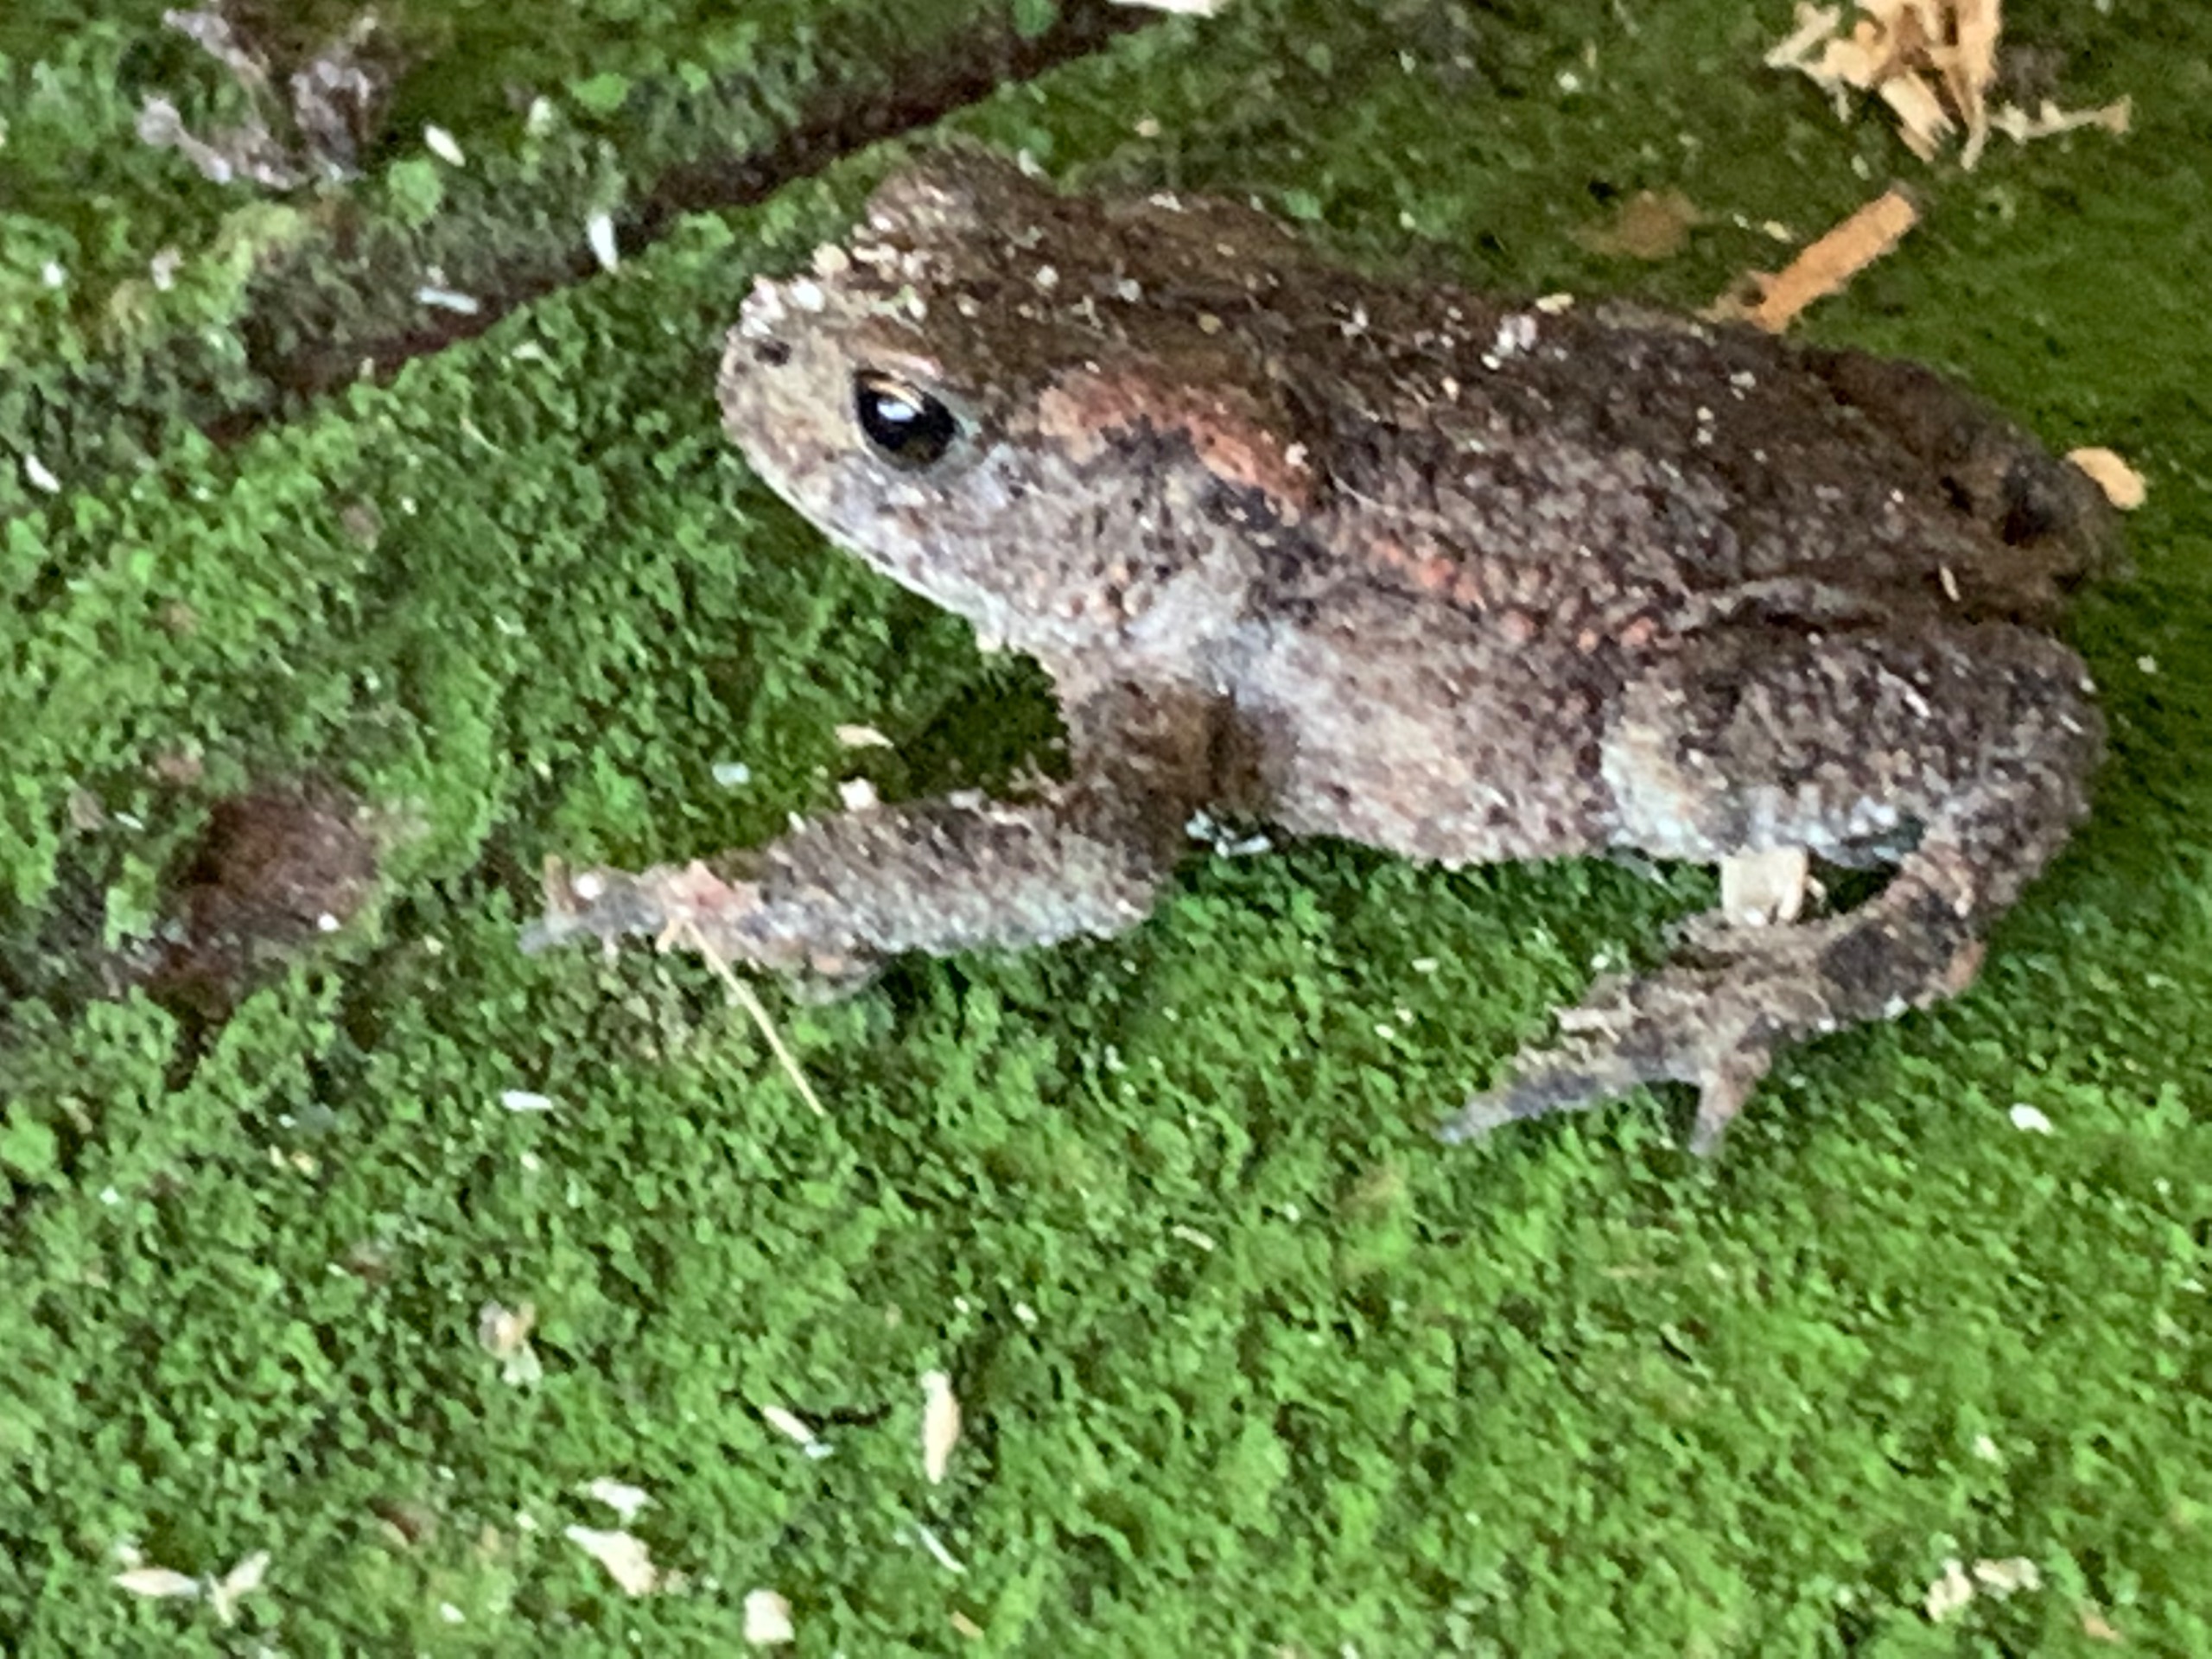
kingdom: Animalia
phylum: Chordata
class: Amphibia
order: Anura
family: Bufonidae
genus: Bufo
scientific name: Bufo bufo
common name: Skrubtudse
